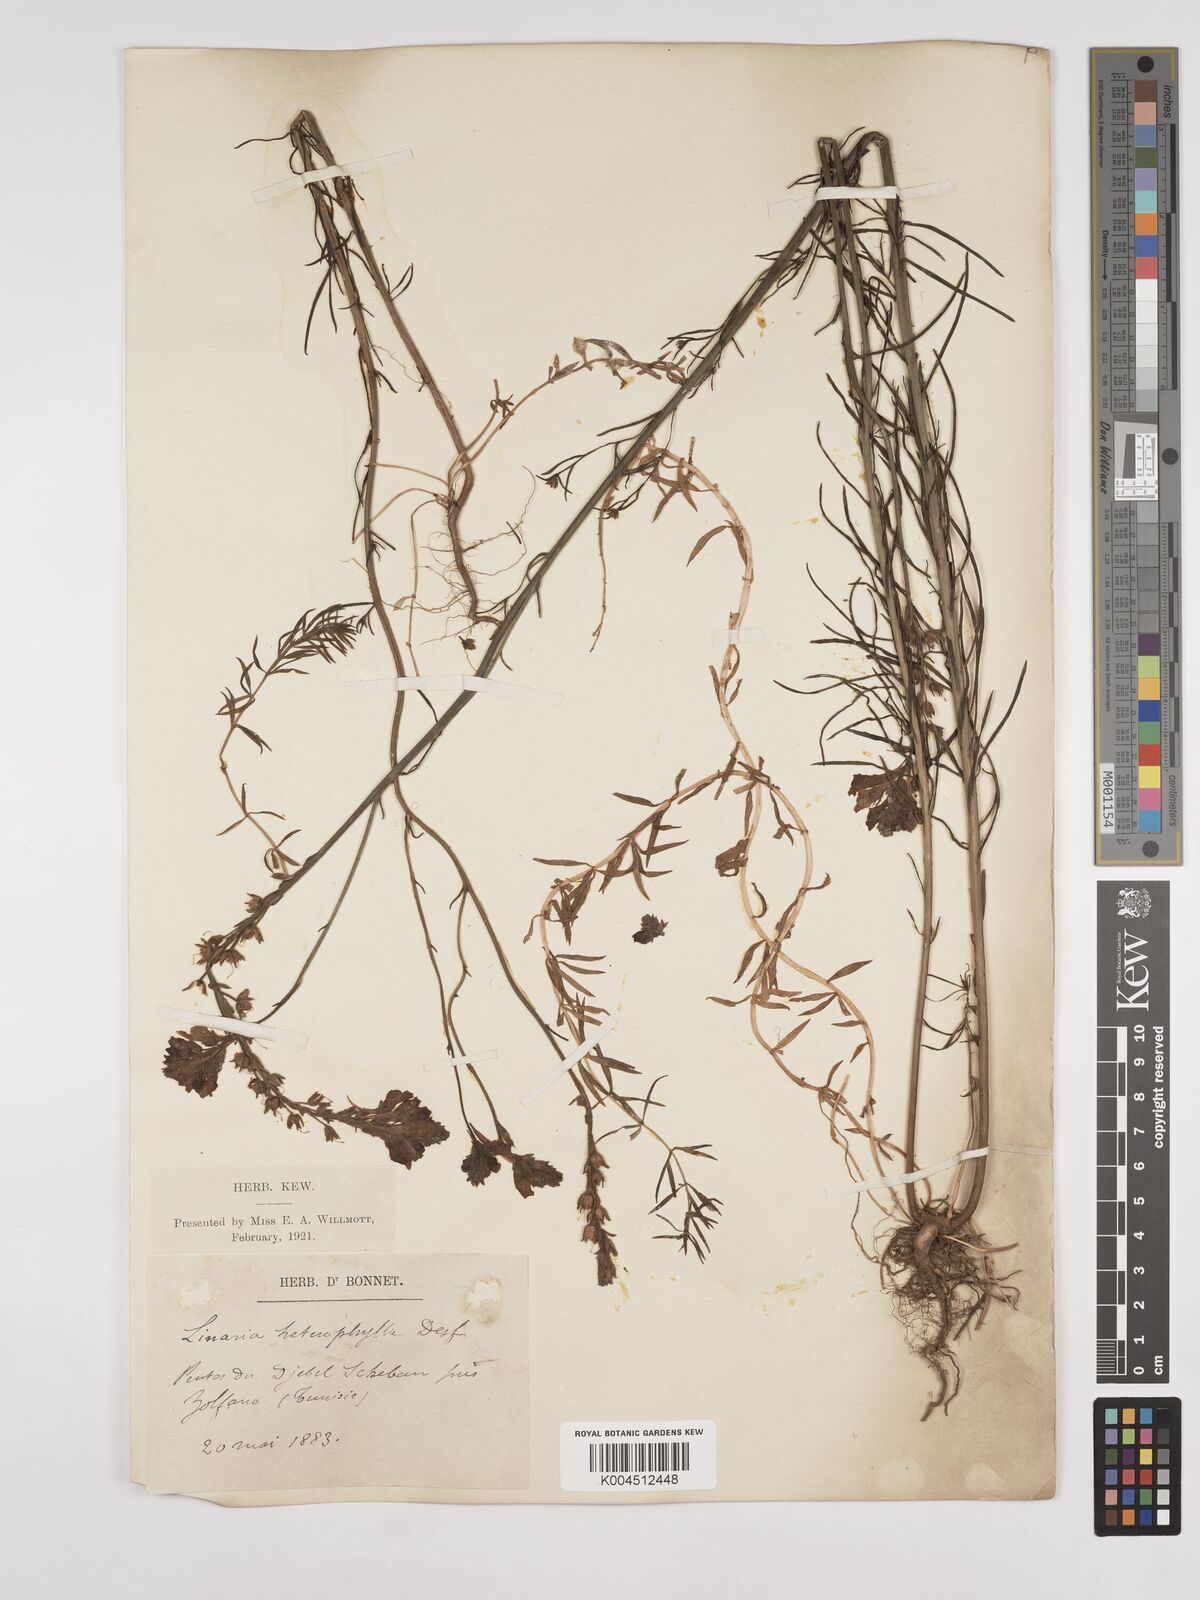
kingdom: Plantae
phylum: Tracheophyta
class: Magnoliopsida
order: Lamiales
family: Plantaginaceae
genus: Linaria
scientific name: Linaria multicaulis
